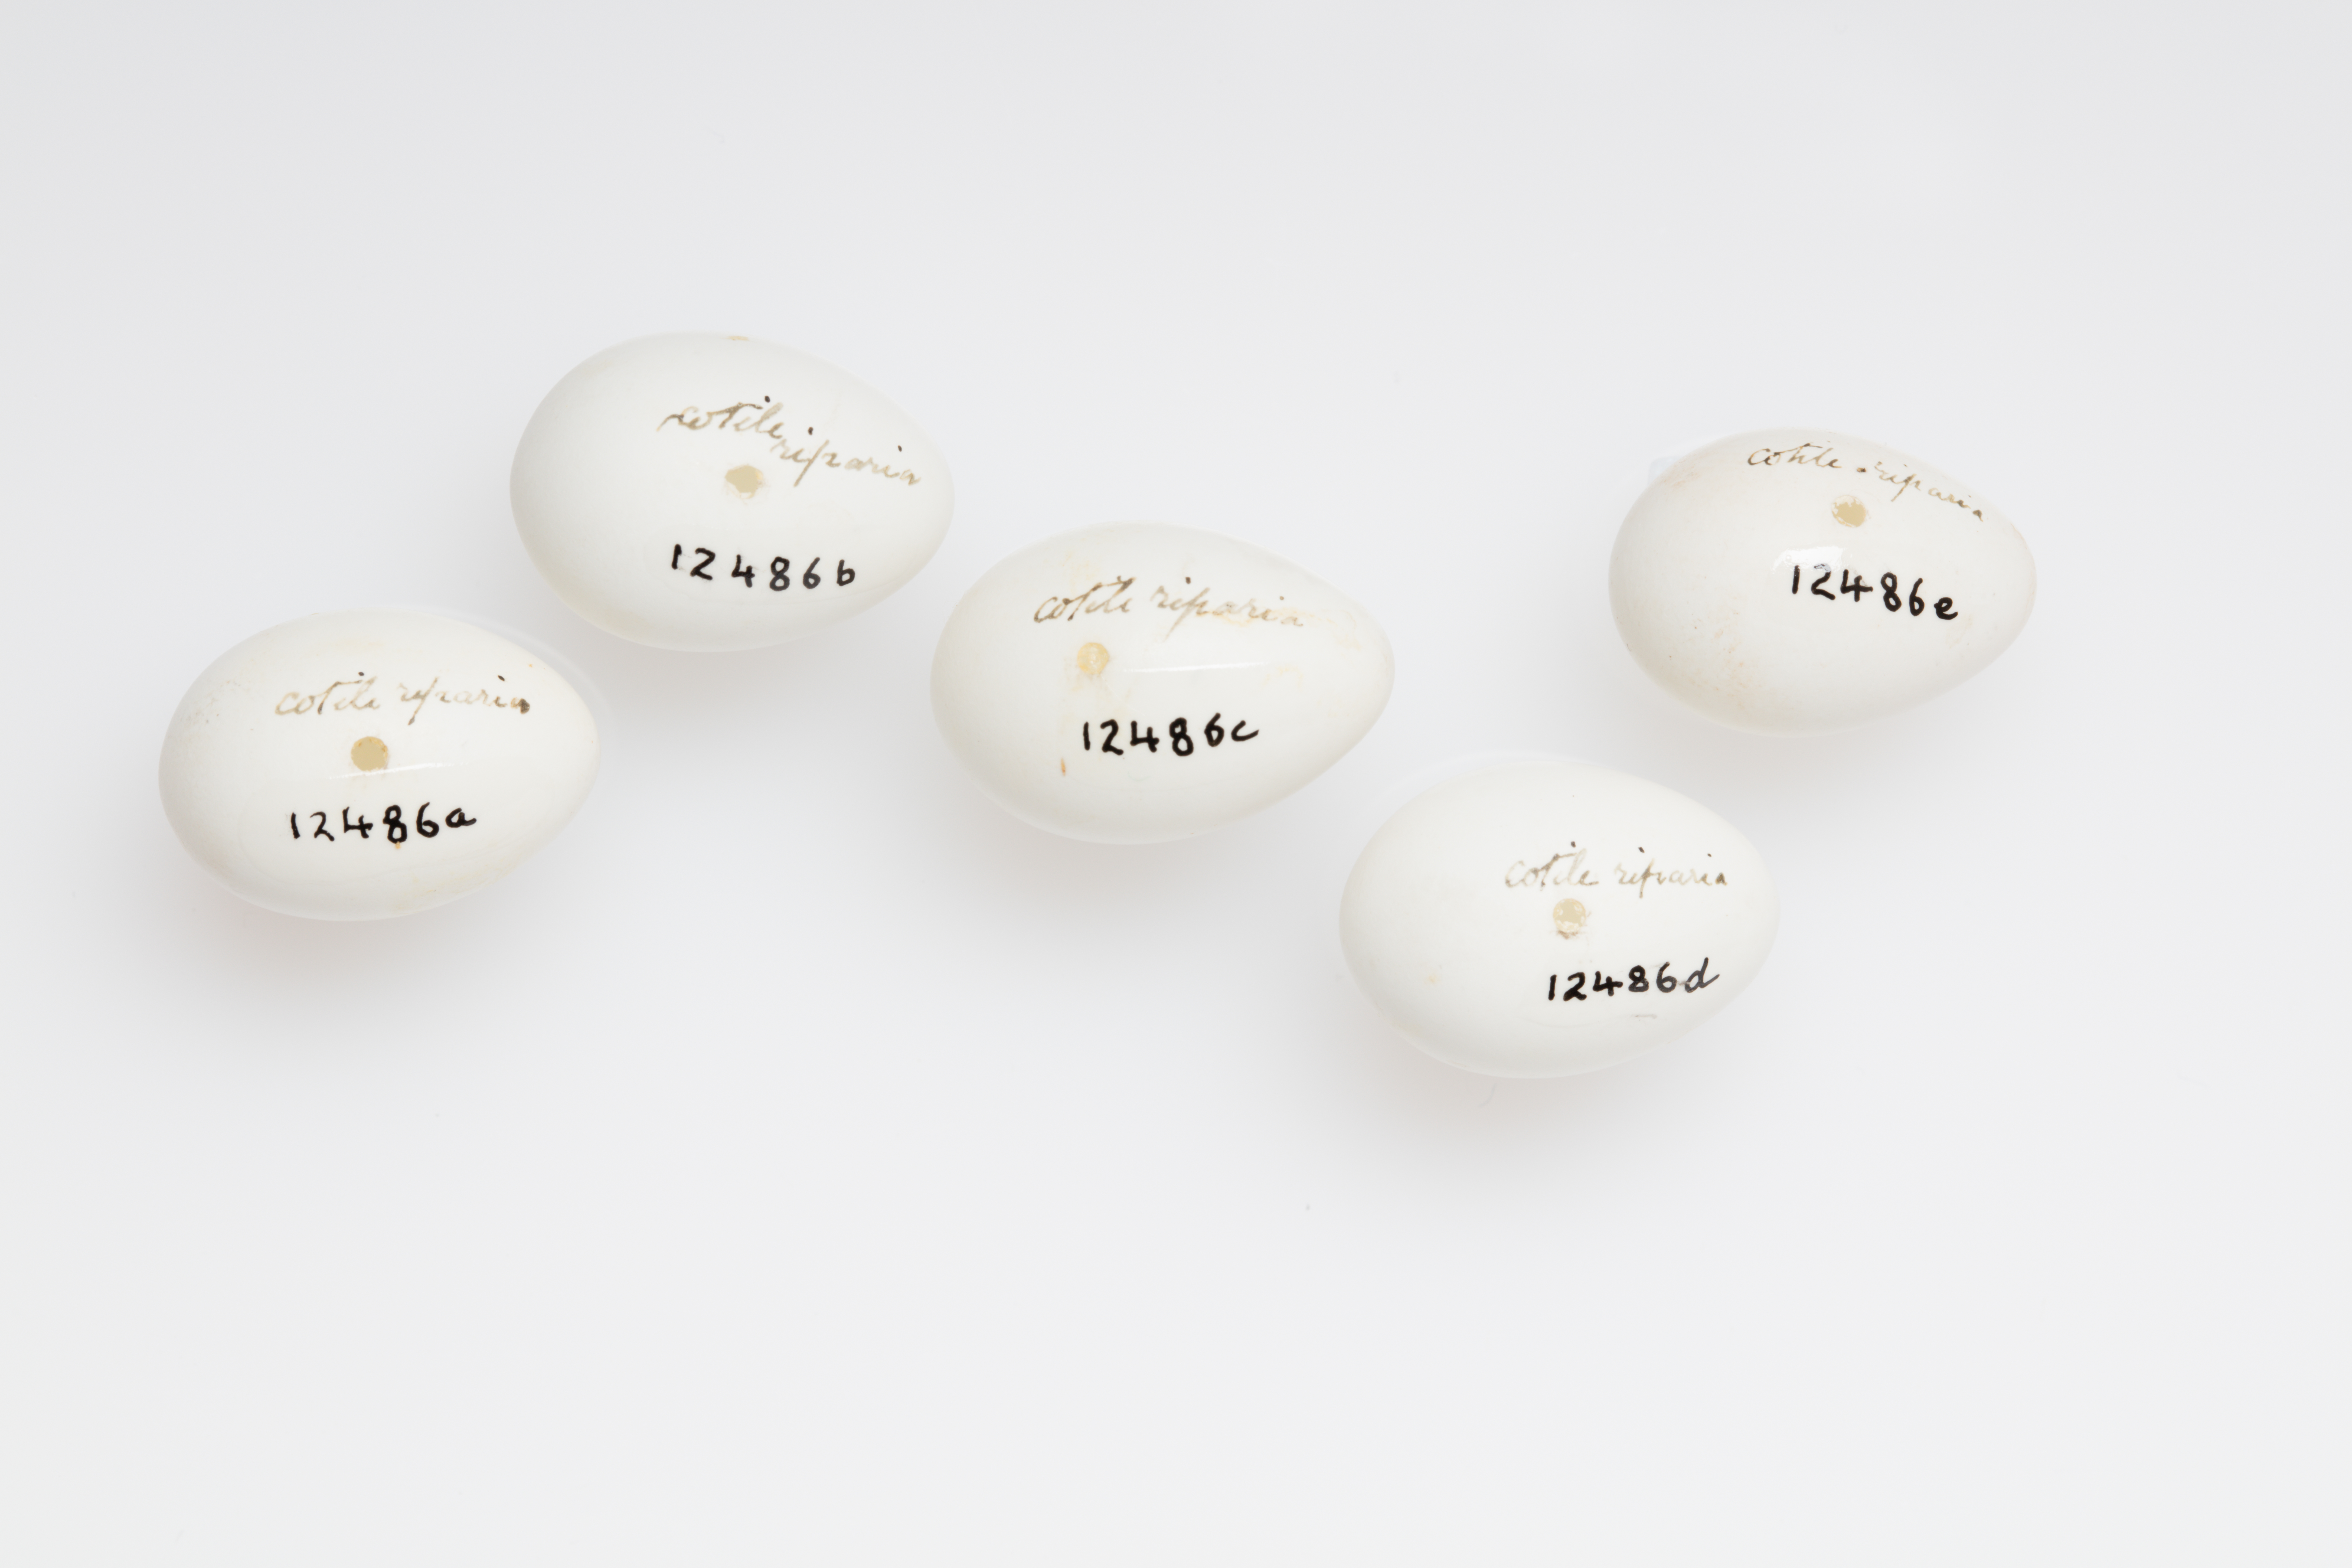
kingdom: Animalia
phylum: Chordata
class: Aves
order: Passeriformes
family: Hirundinidae
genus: Riparia
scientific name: Riparia riparia
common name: Sand martin
